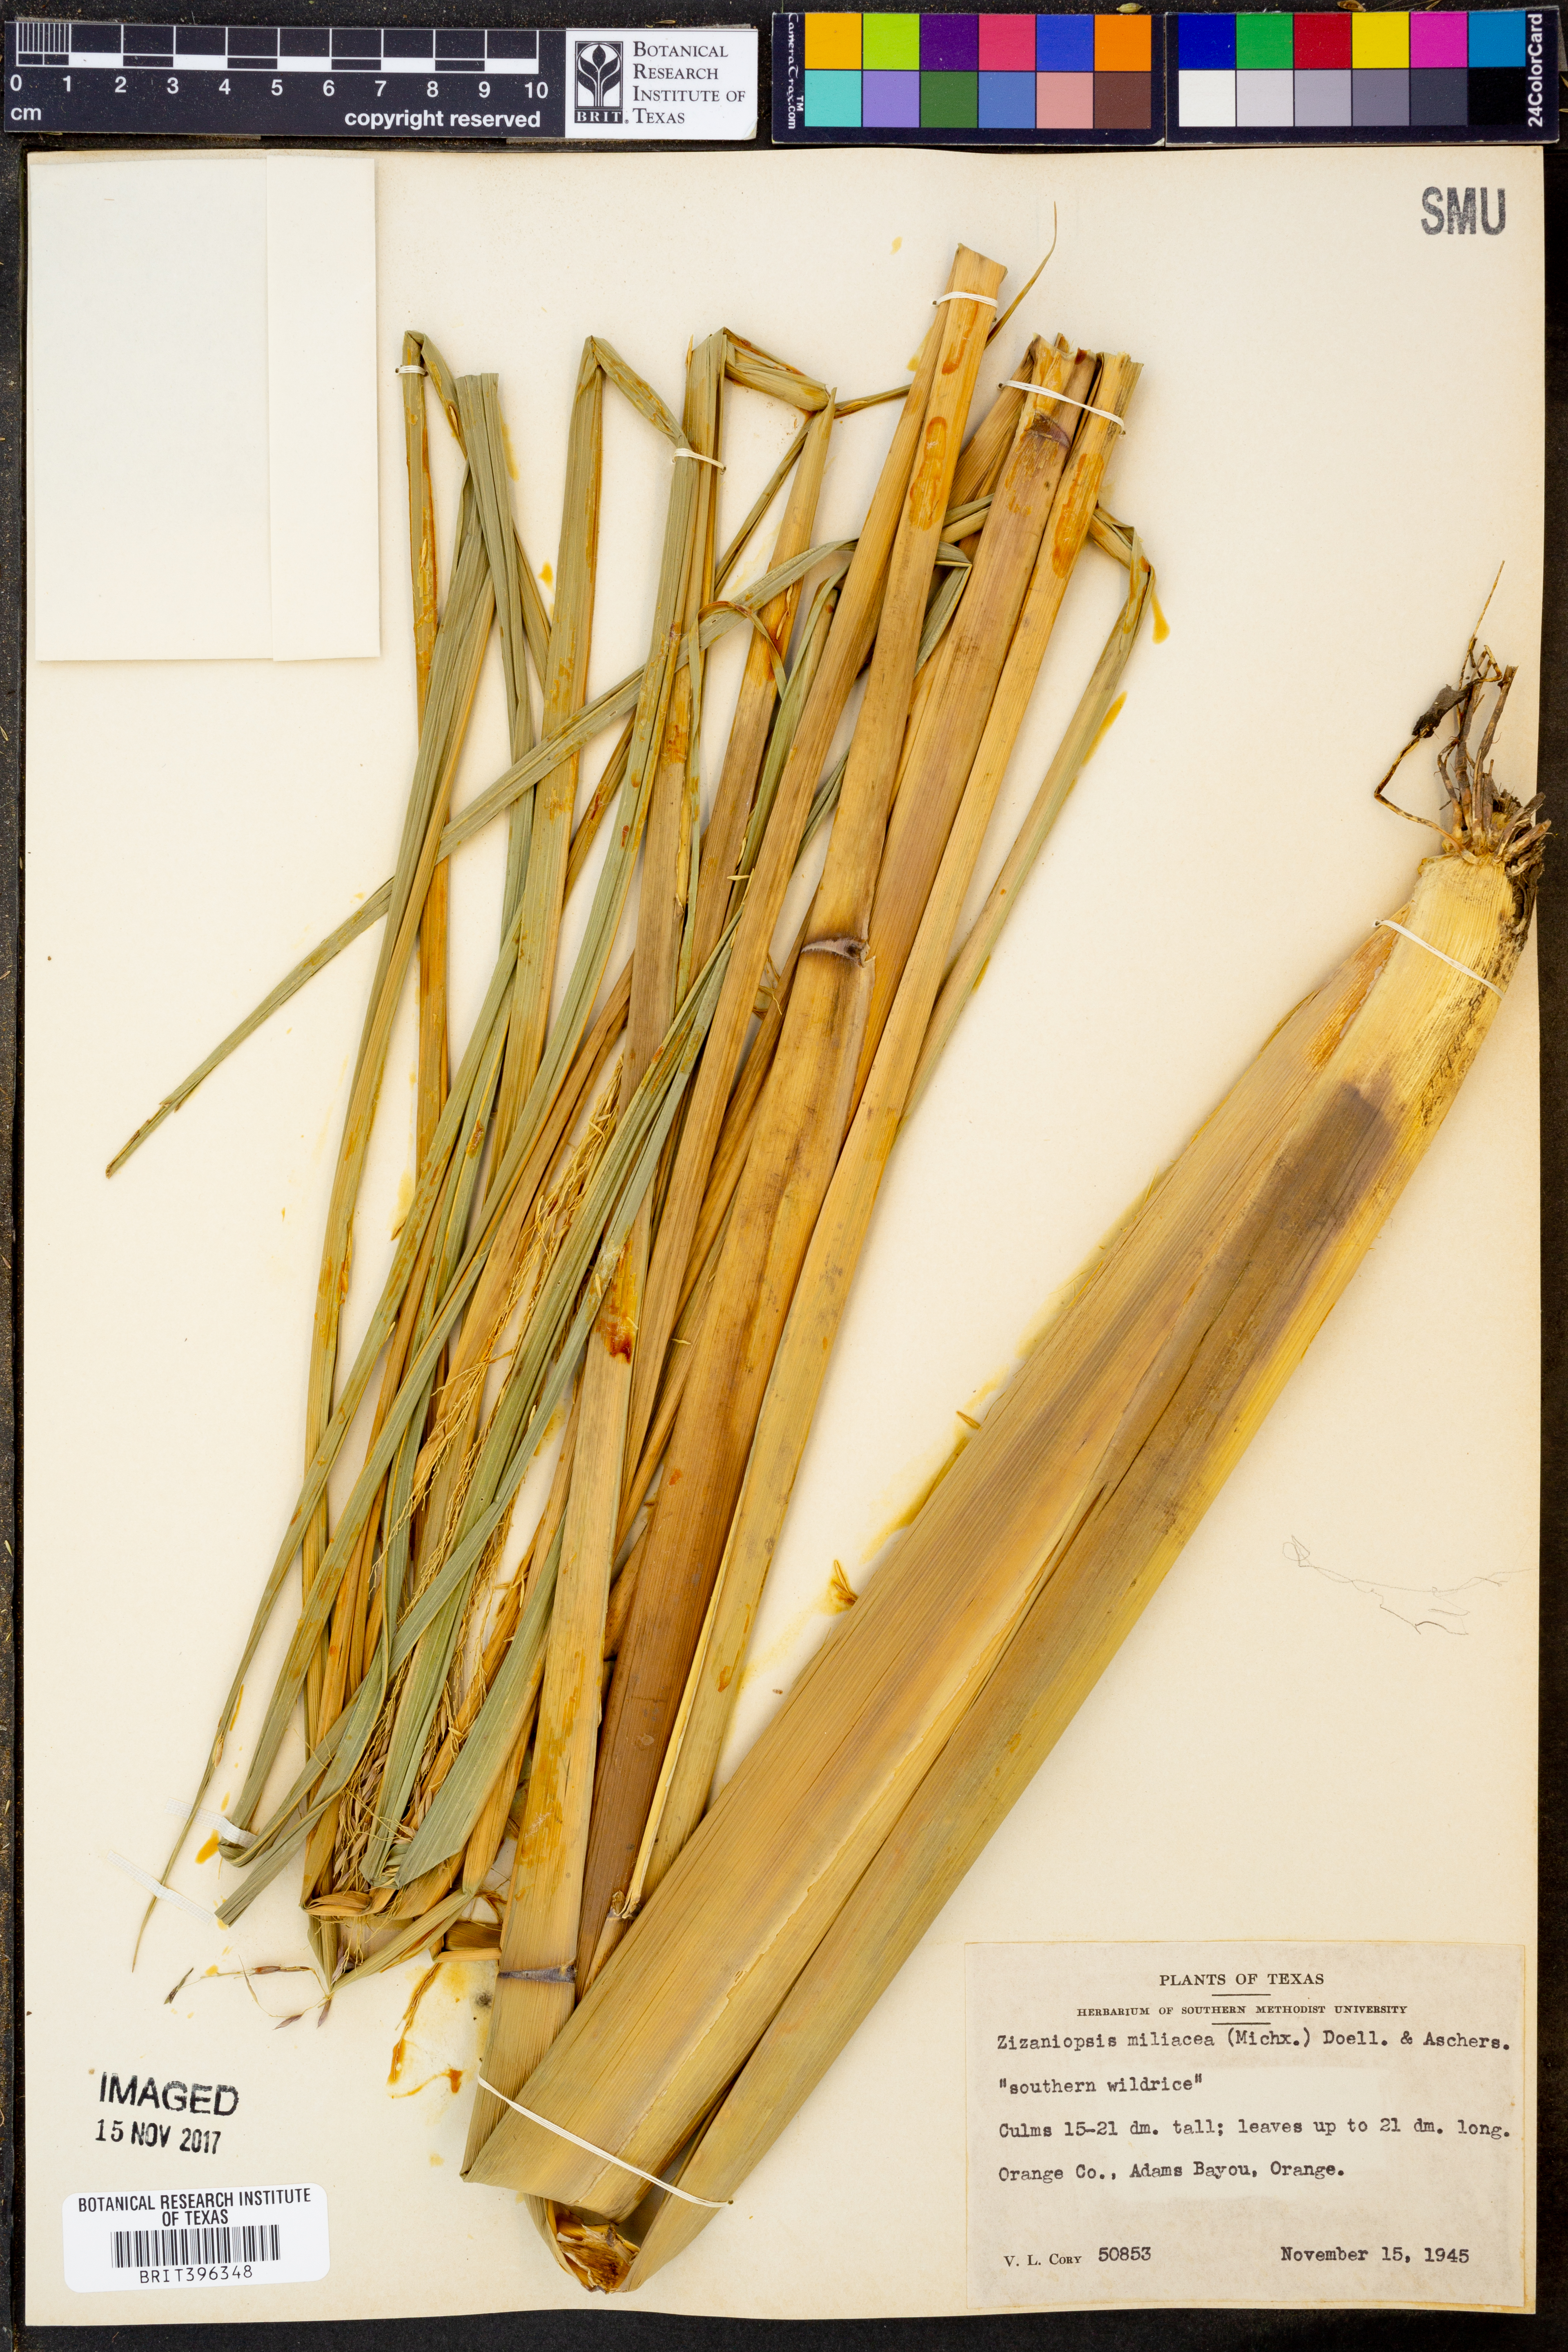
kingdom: Plantae
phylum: Tracheophyta
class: Liliopsida
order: Poales
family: Poaceae
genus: Zizaniopsis
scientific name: Zizaniopsis miliacea
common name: Giant-cutgrass
